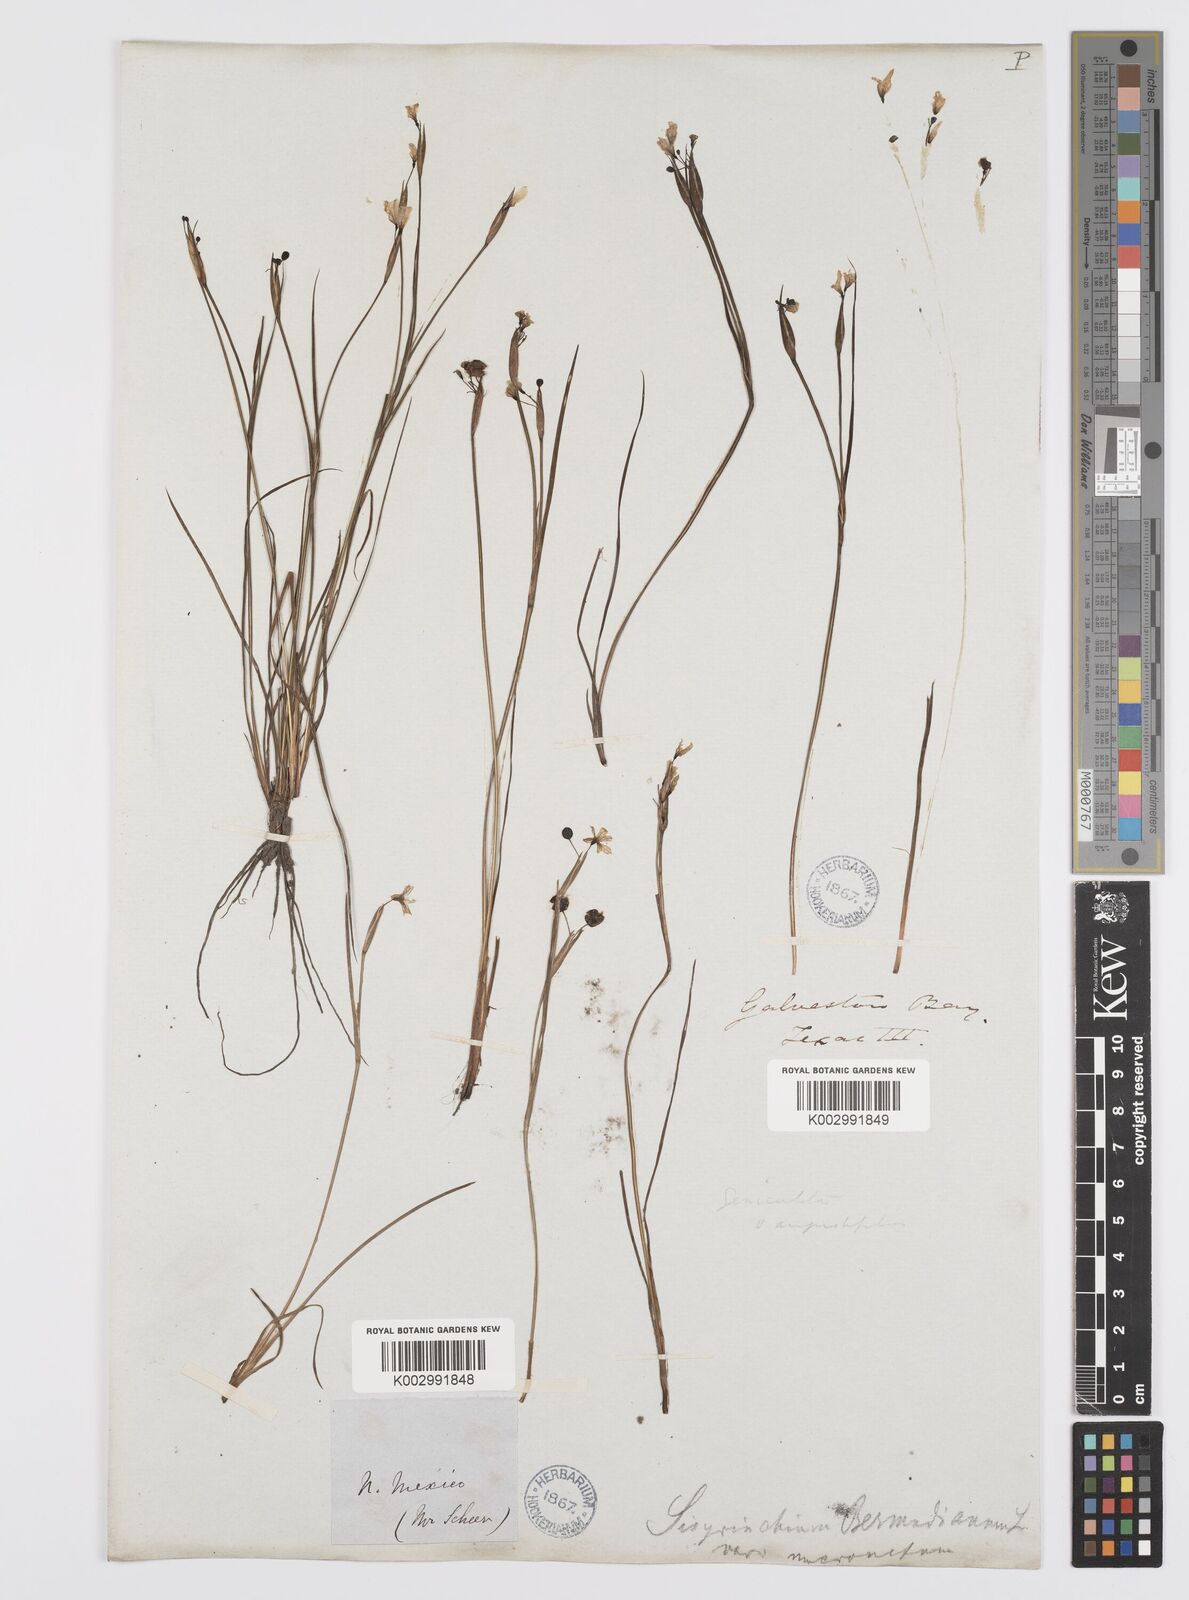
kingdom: Plantae
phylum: Tracheophyta
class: Liliopsida
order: Asparagales
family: Iridaceae
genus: Sisyrinchium
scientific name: Sisyrinchium bermudiana
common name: Blue-eyed-grass
